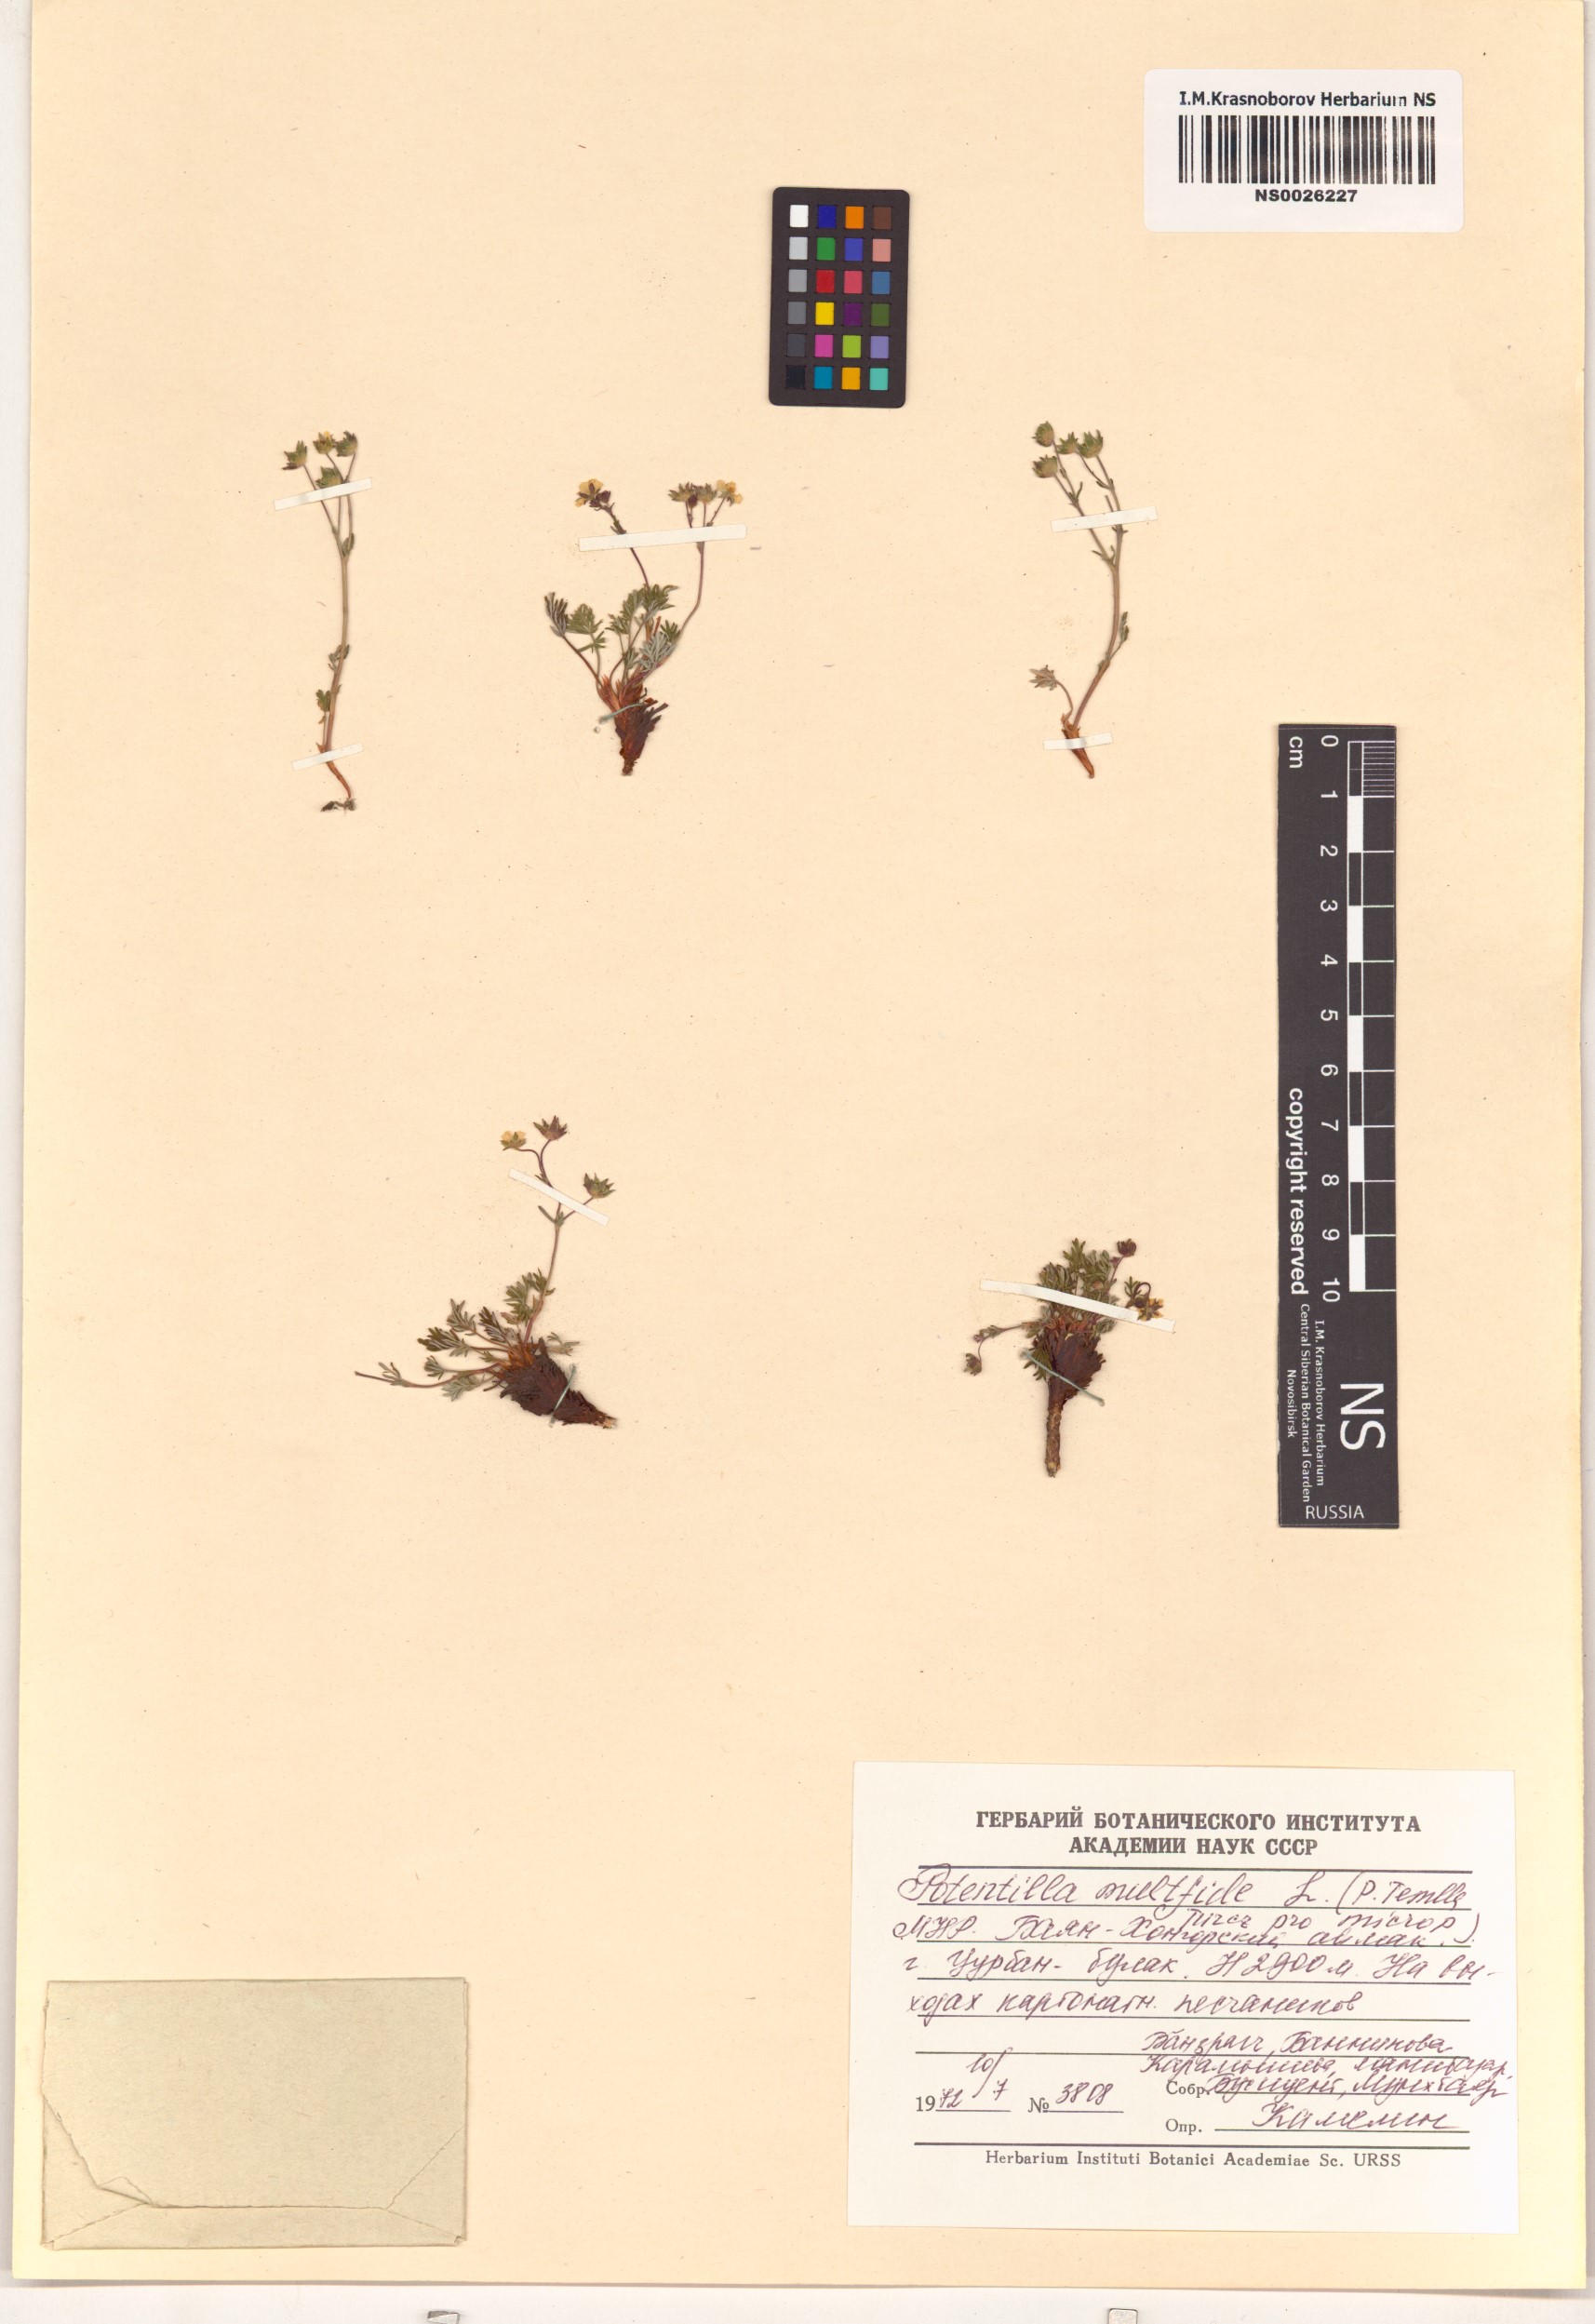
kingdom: Plantae
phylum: Tracheophyta
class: Magnoliopsida
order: Rosales
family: Rosaceae
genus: Potentilla
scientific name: Potentilla multifida
